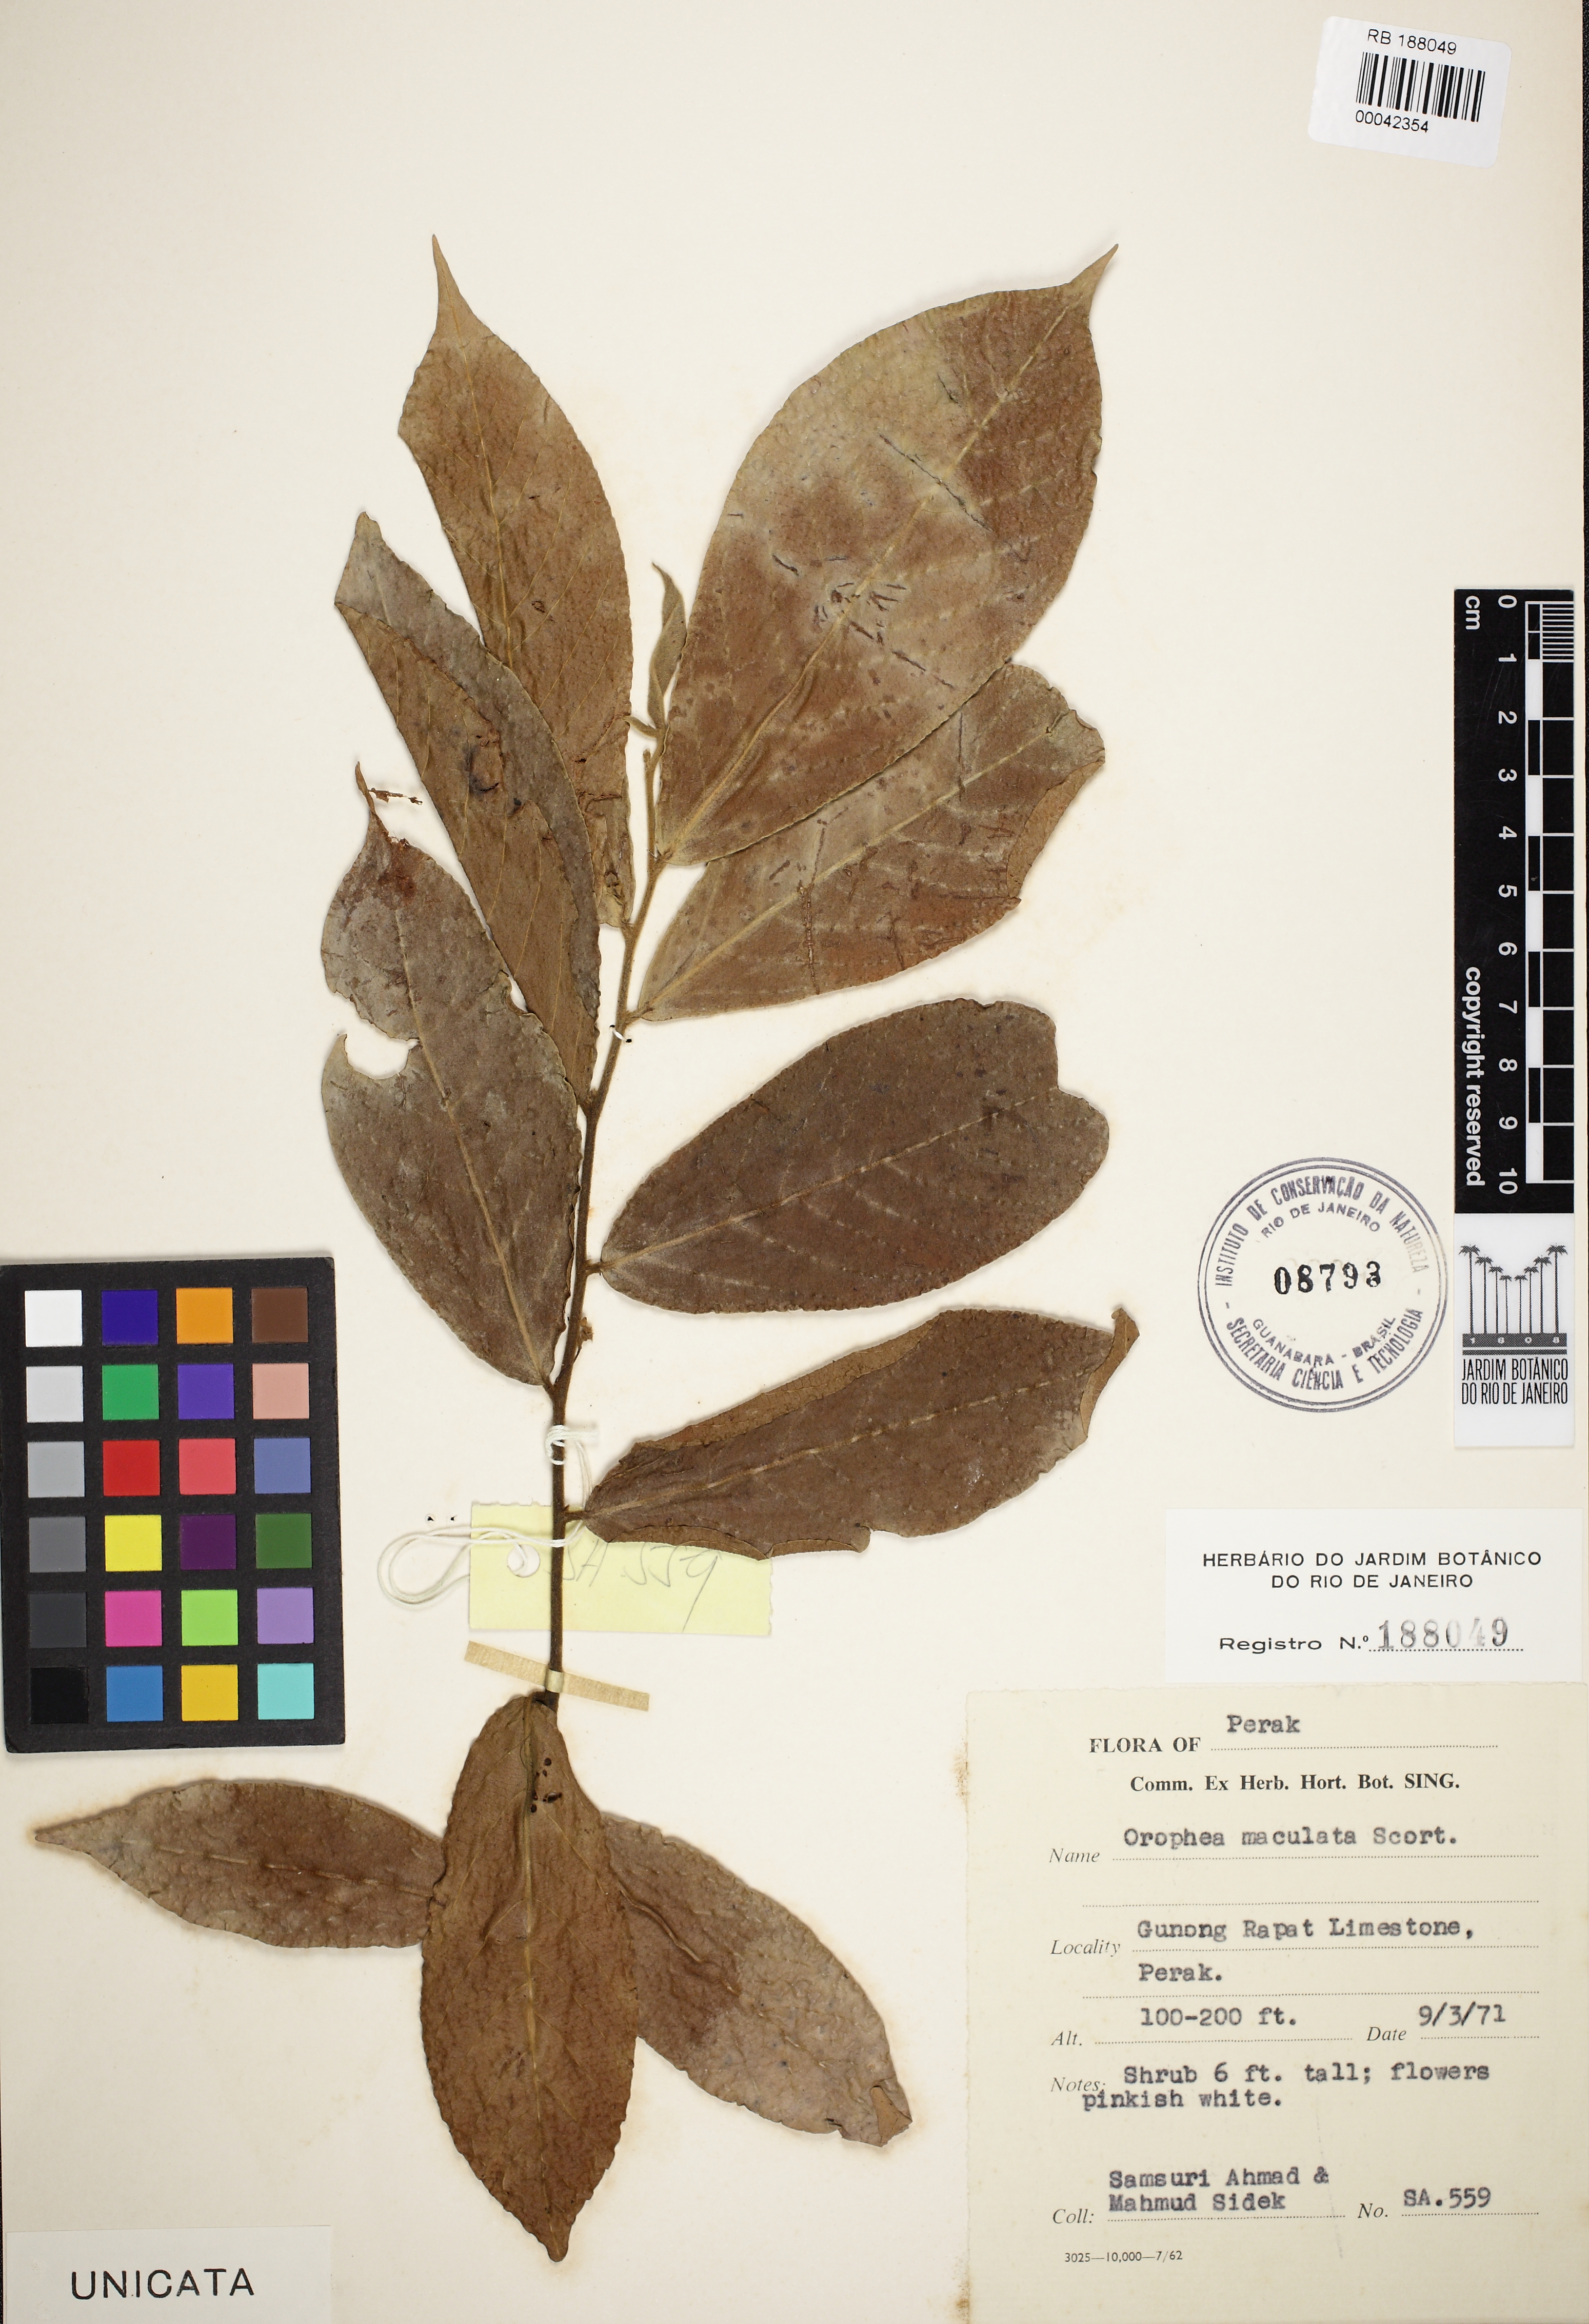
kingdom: Plantae
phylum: Tracheophyta
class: Magnoliopsida
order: Magnoliales
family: Annonaceae
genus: Orophea
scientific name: Orophea maculata
